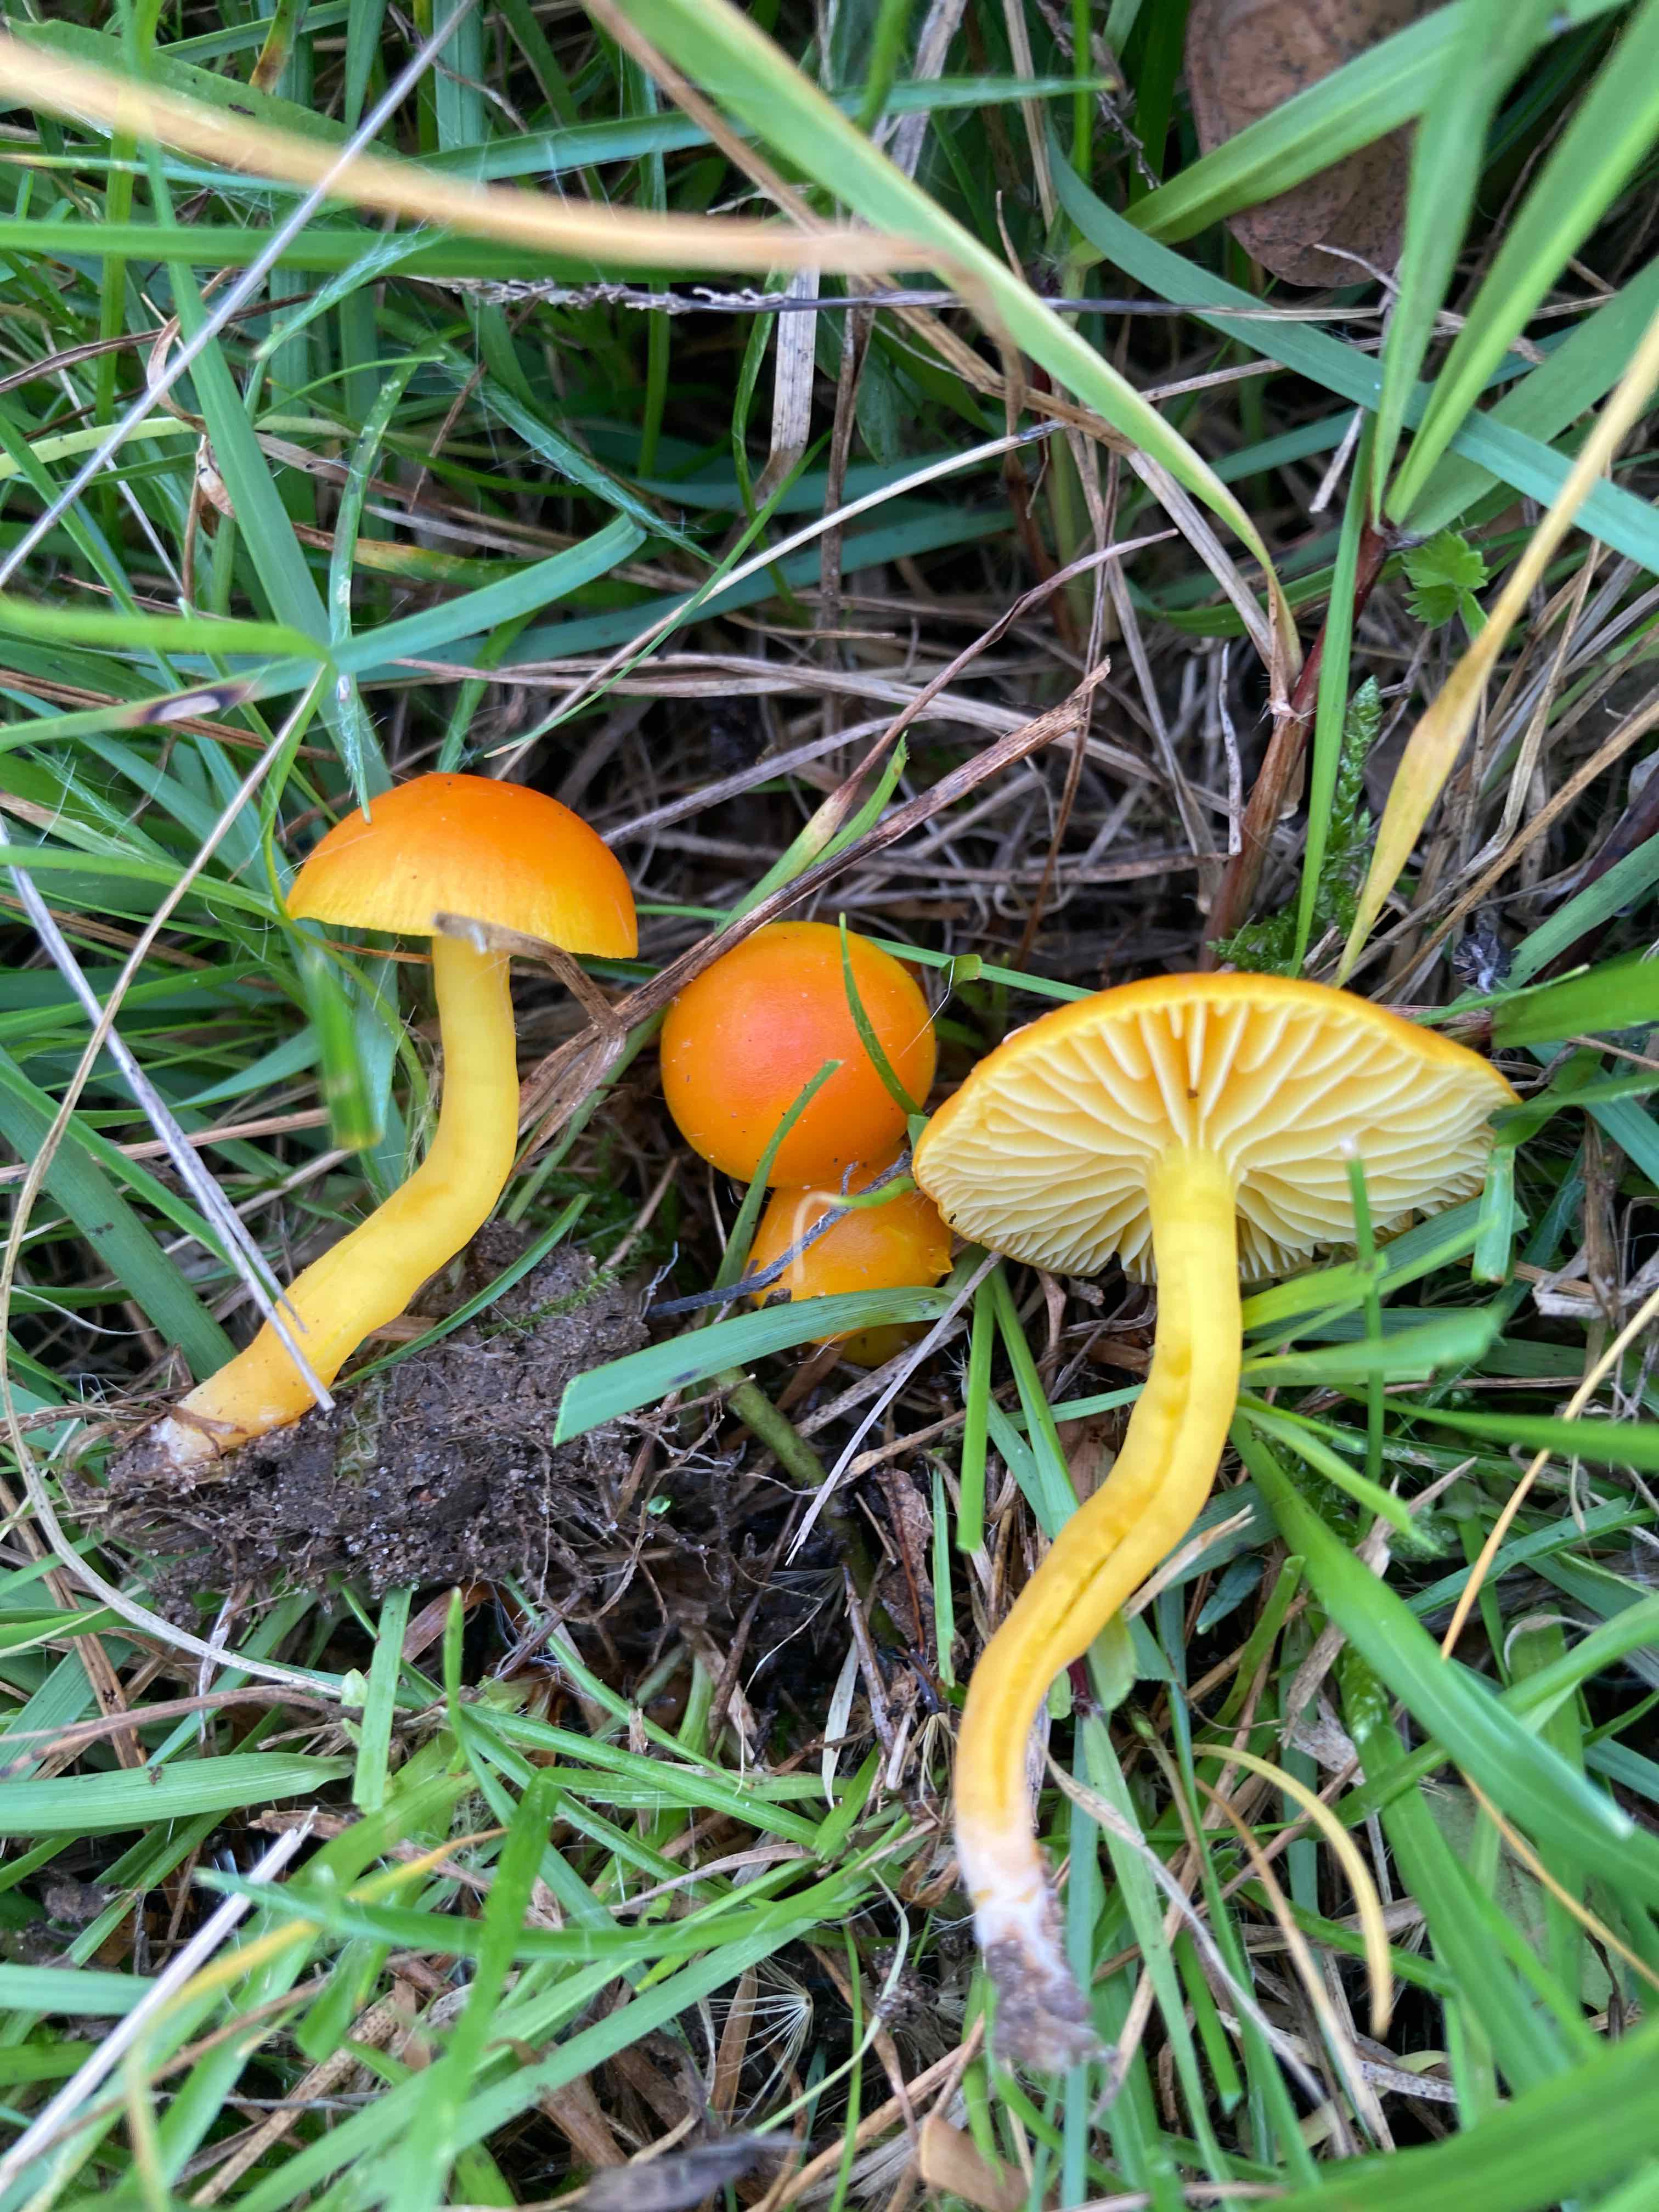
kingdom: Fungi
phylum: Basidiomycota
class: Agaricomycetes
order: Agaricales
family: Hygrophoraceae
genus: Hygrocybe
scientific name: Hygrocybe ceracea
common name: voksgul vokshat
